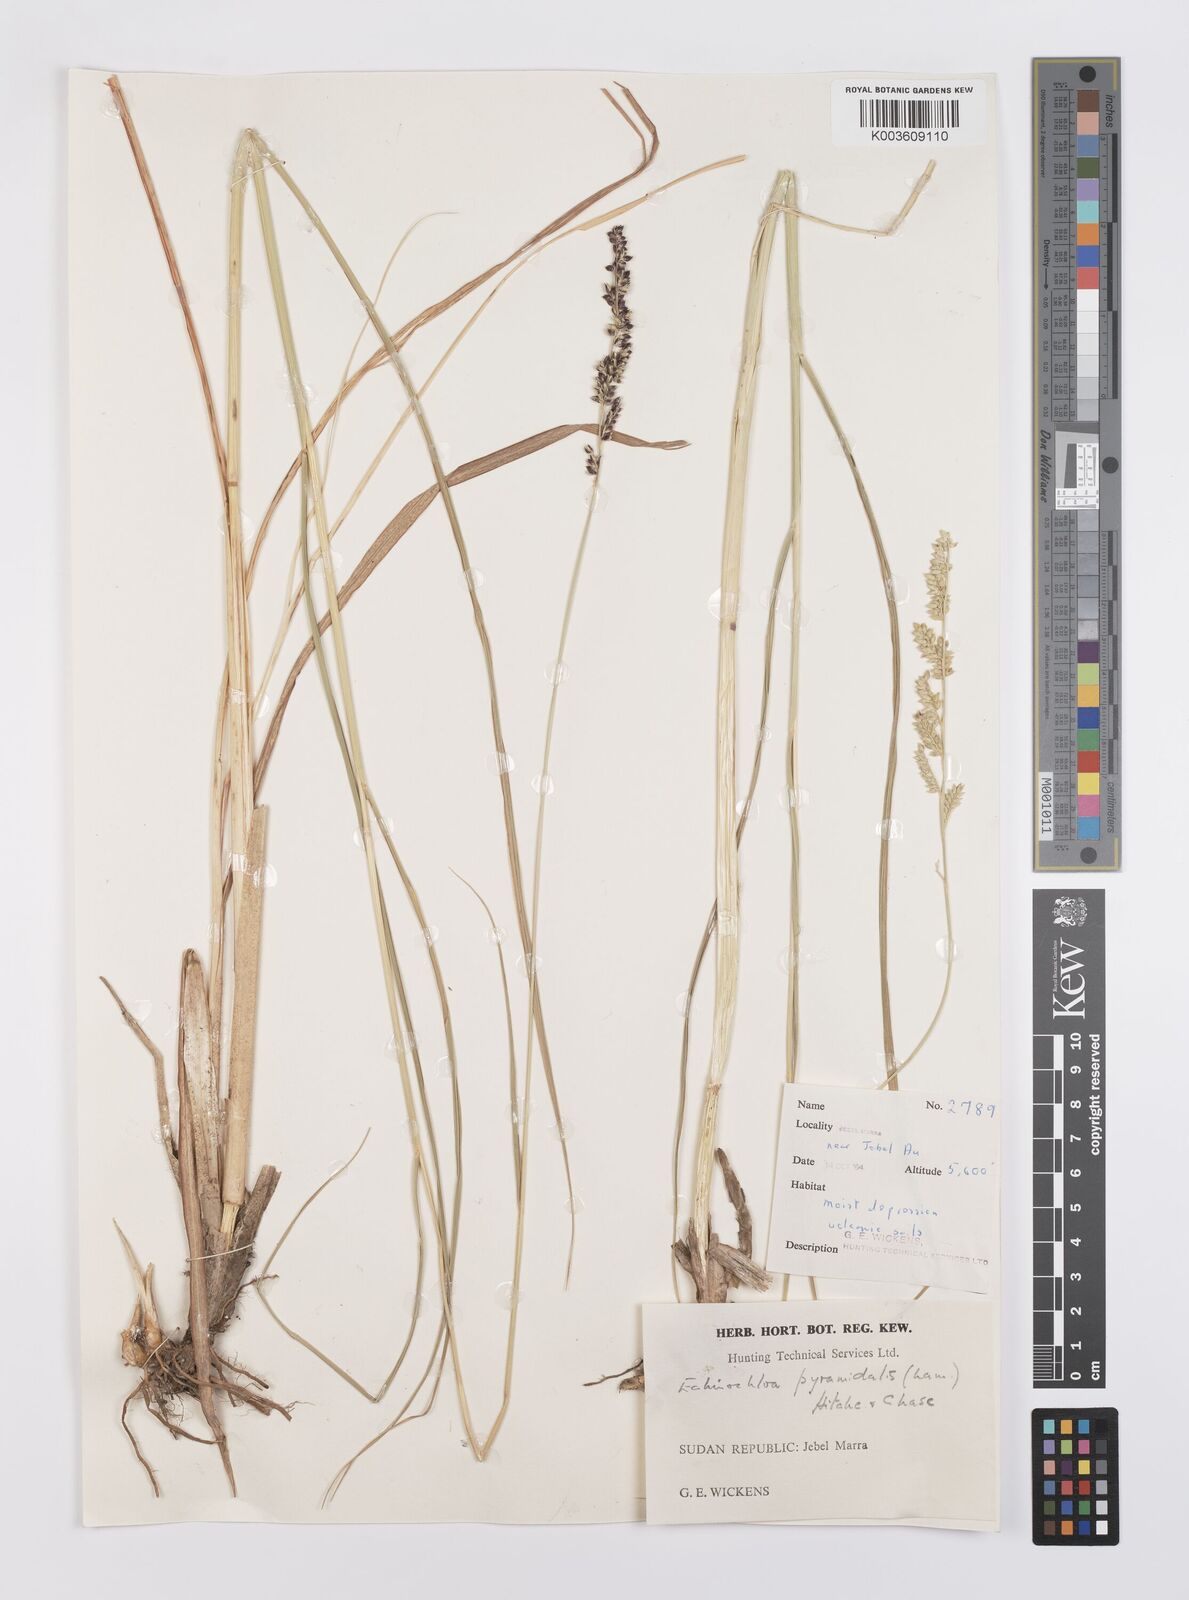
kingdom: Plantae
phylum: Tracheophyta
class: Liliopsida
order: Poales
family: Poaceae
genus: Echinochloa
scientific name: Echinochloa pyramidalis
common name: Antelope grass
